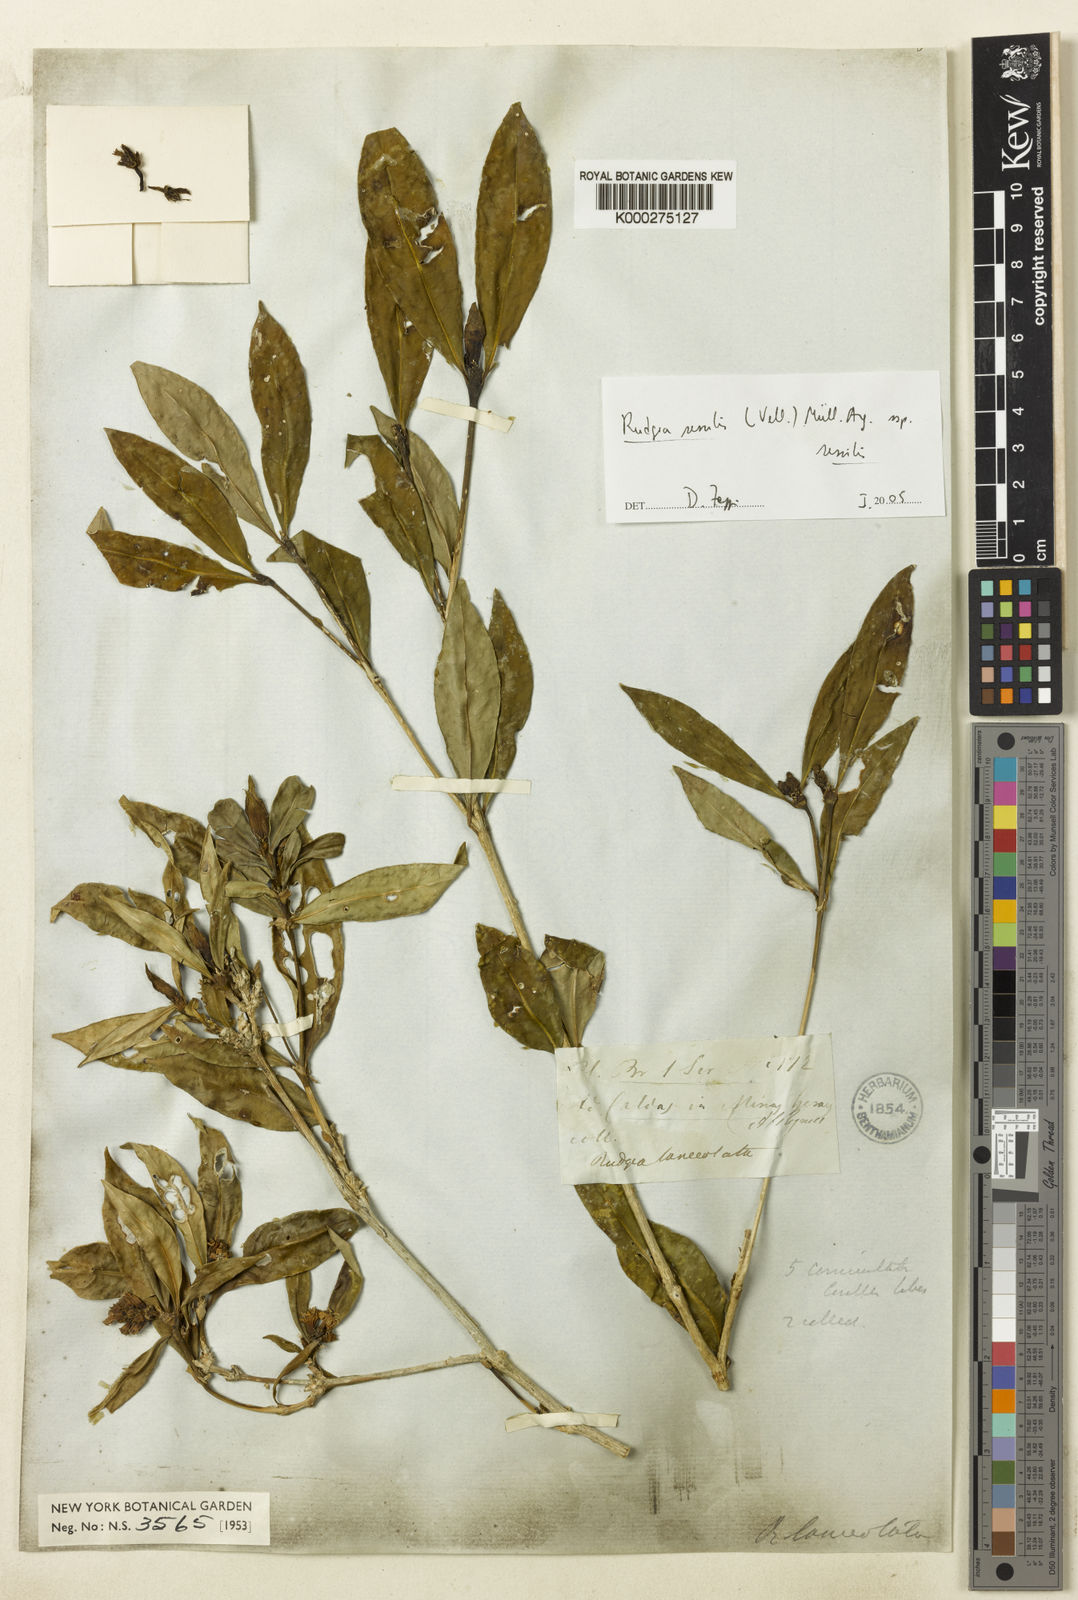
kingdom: Plantae
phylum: Tracheophyta
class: Magnoliopsida
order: Gentianales
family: Rubiaceae
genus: Rudgea
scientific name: Rudgea
